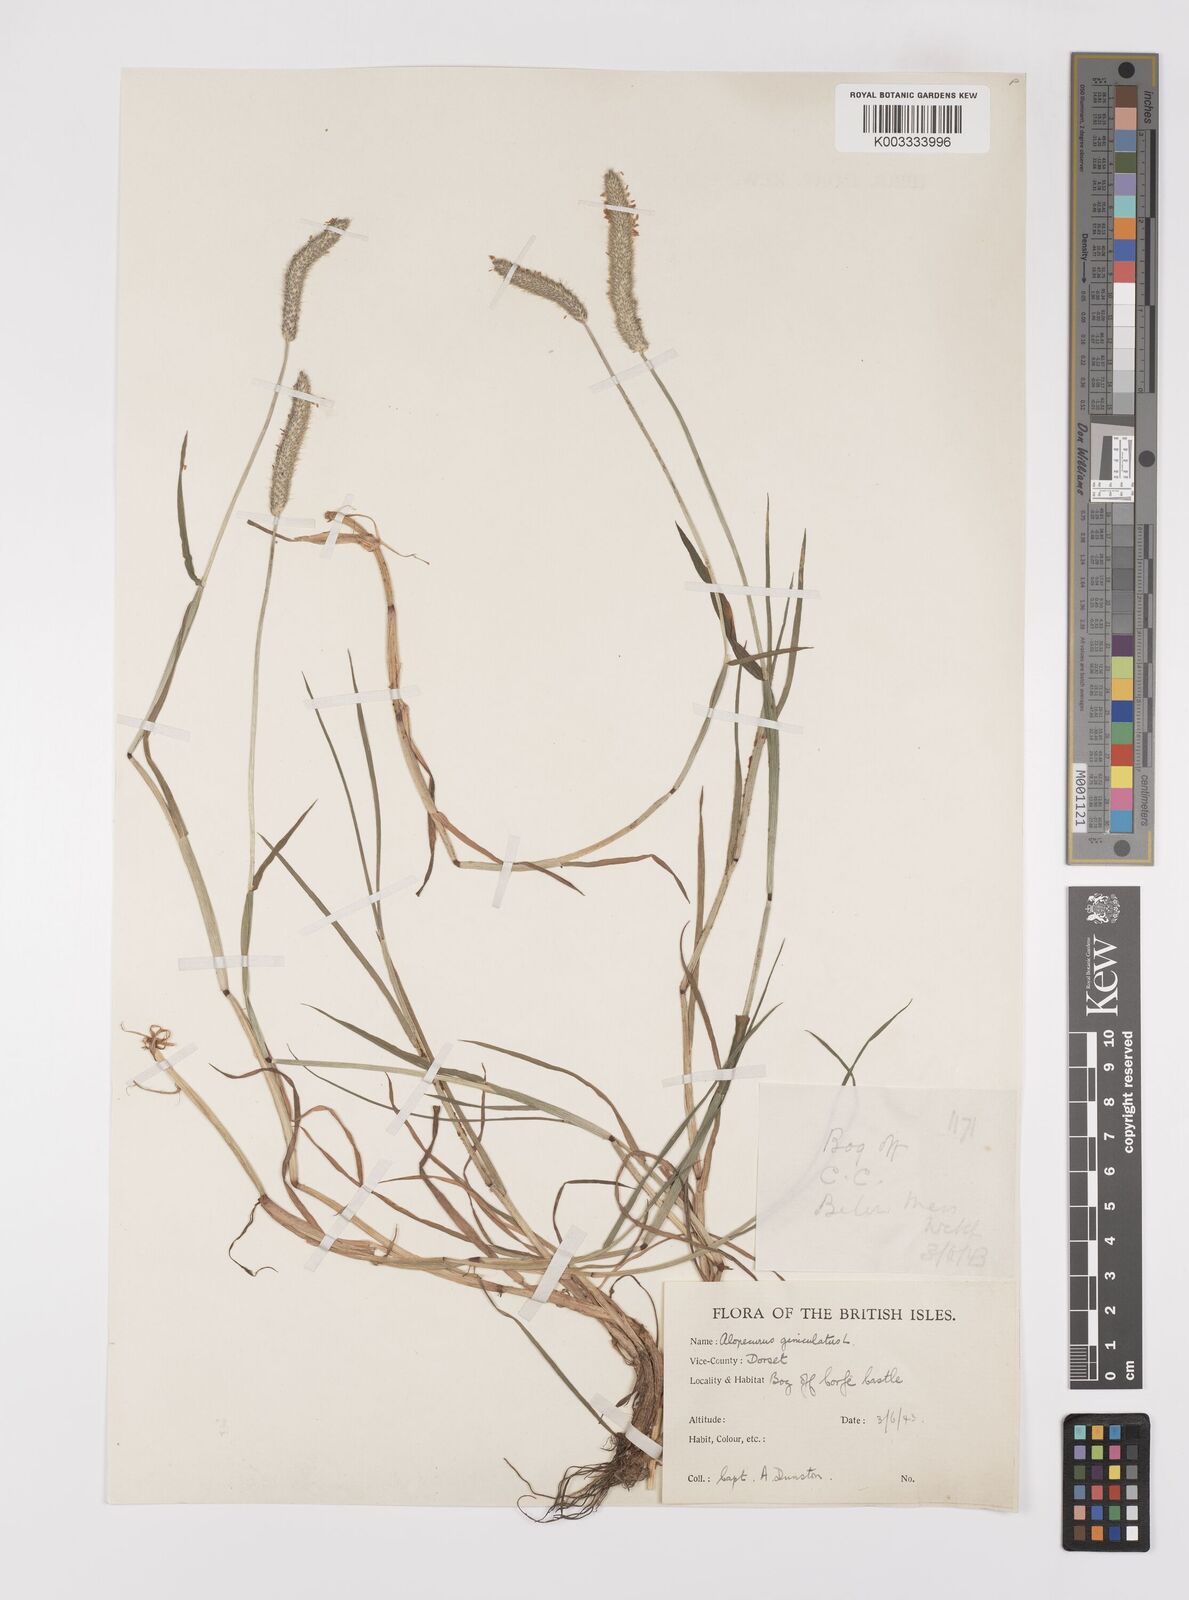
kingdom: Plantae
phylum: Tracheophyta
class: Liliopsida
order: Poales
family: Poaceae
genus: Alopecurus
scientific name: Alopecurus geniculatus
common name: Water foxtail
